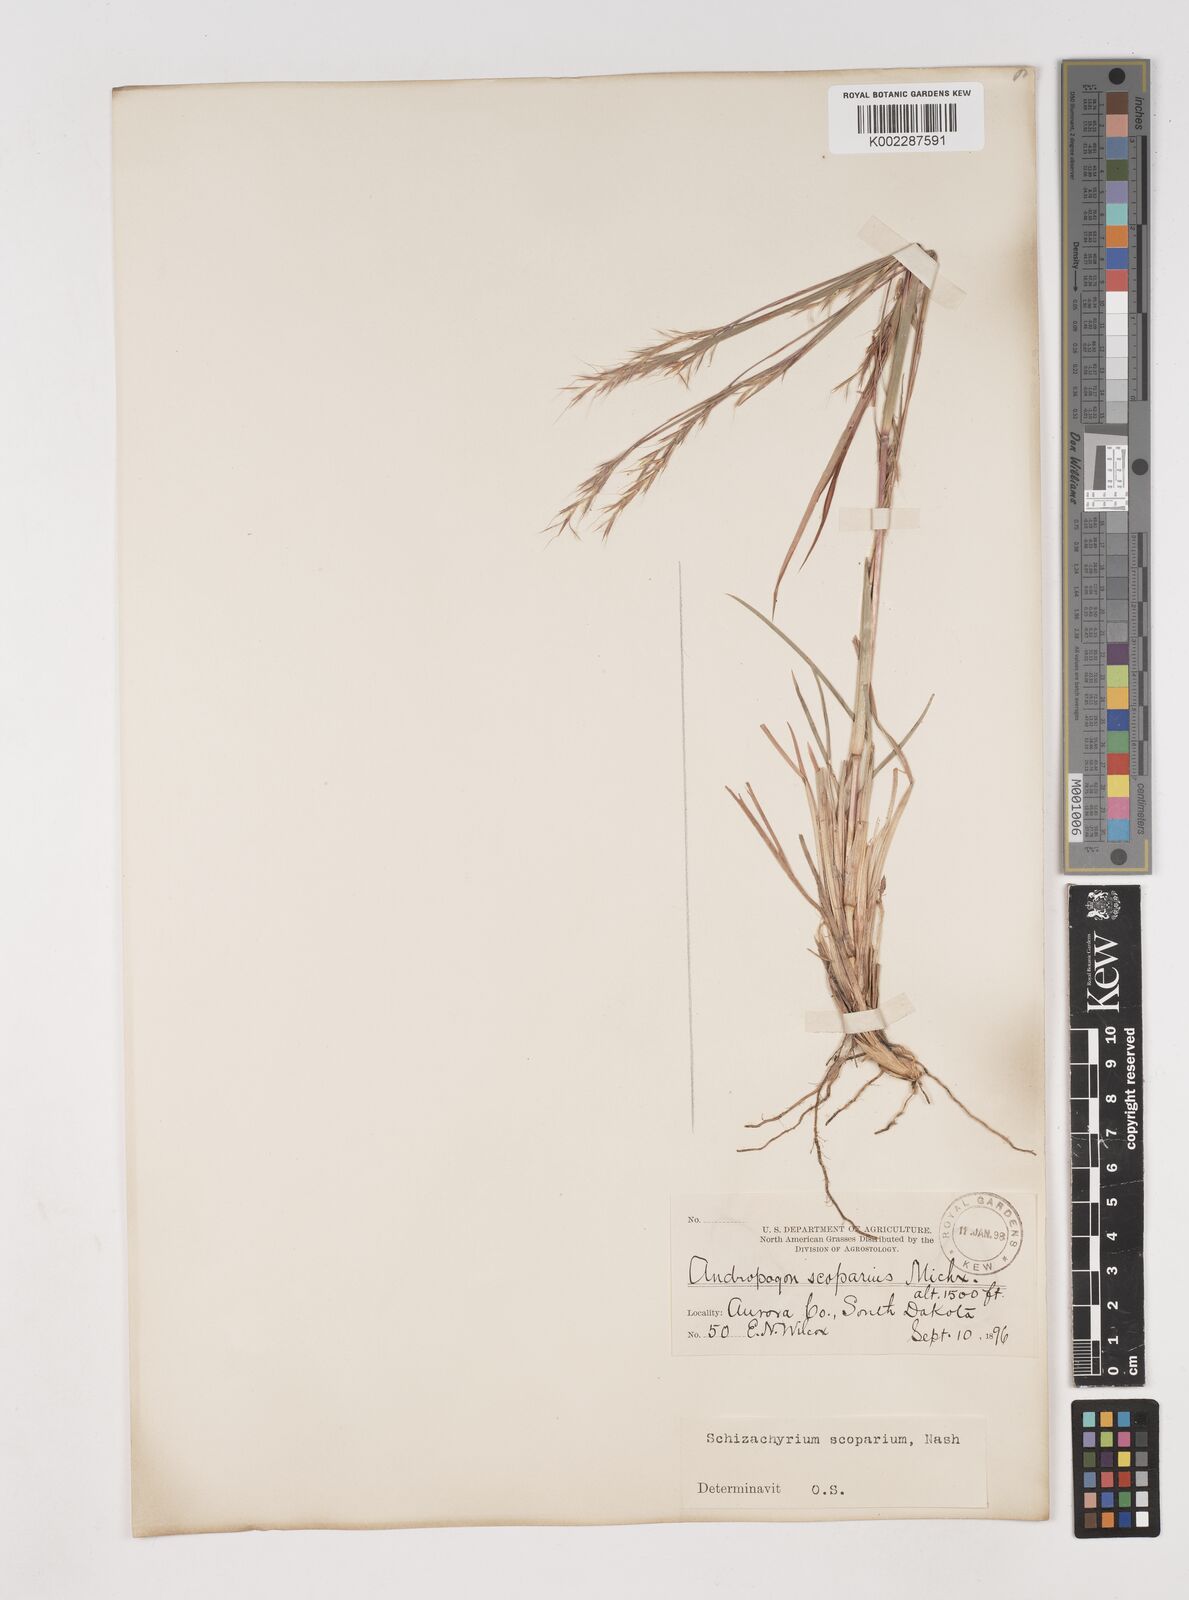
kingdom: Plantae
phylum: Tracheophyta
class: Liliopsida
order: Poales
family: Poaceae
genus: Schizachyrium
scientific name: Schizachyrium scoparium
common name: Little bluestem
